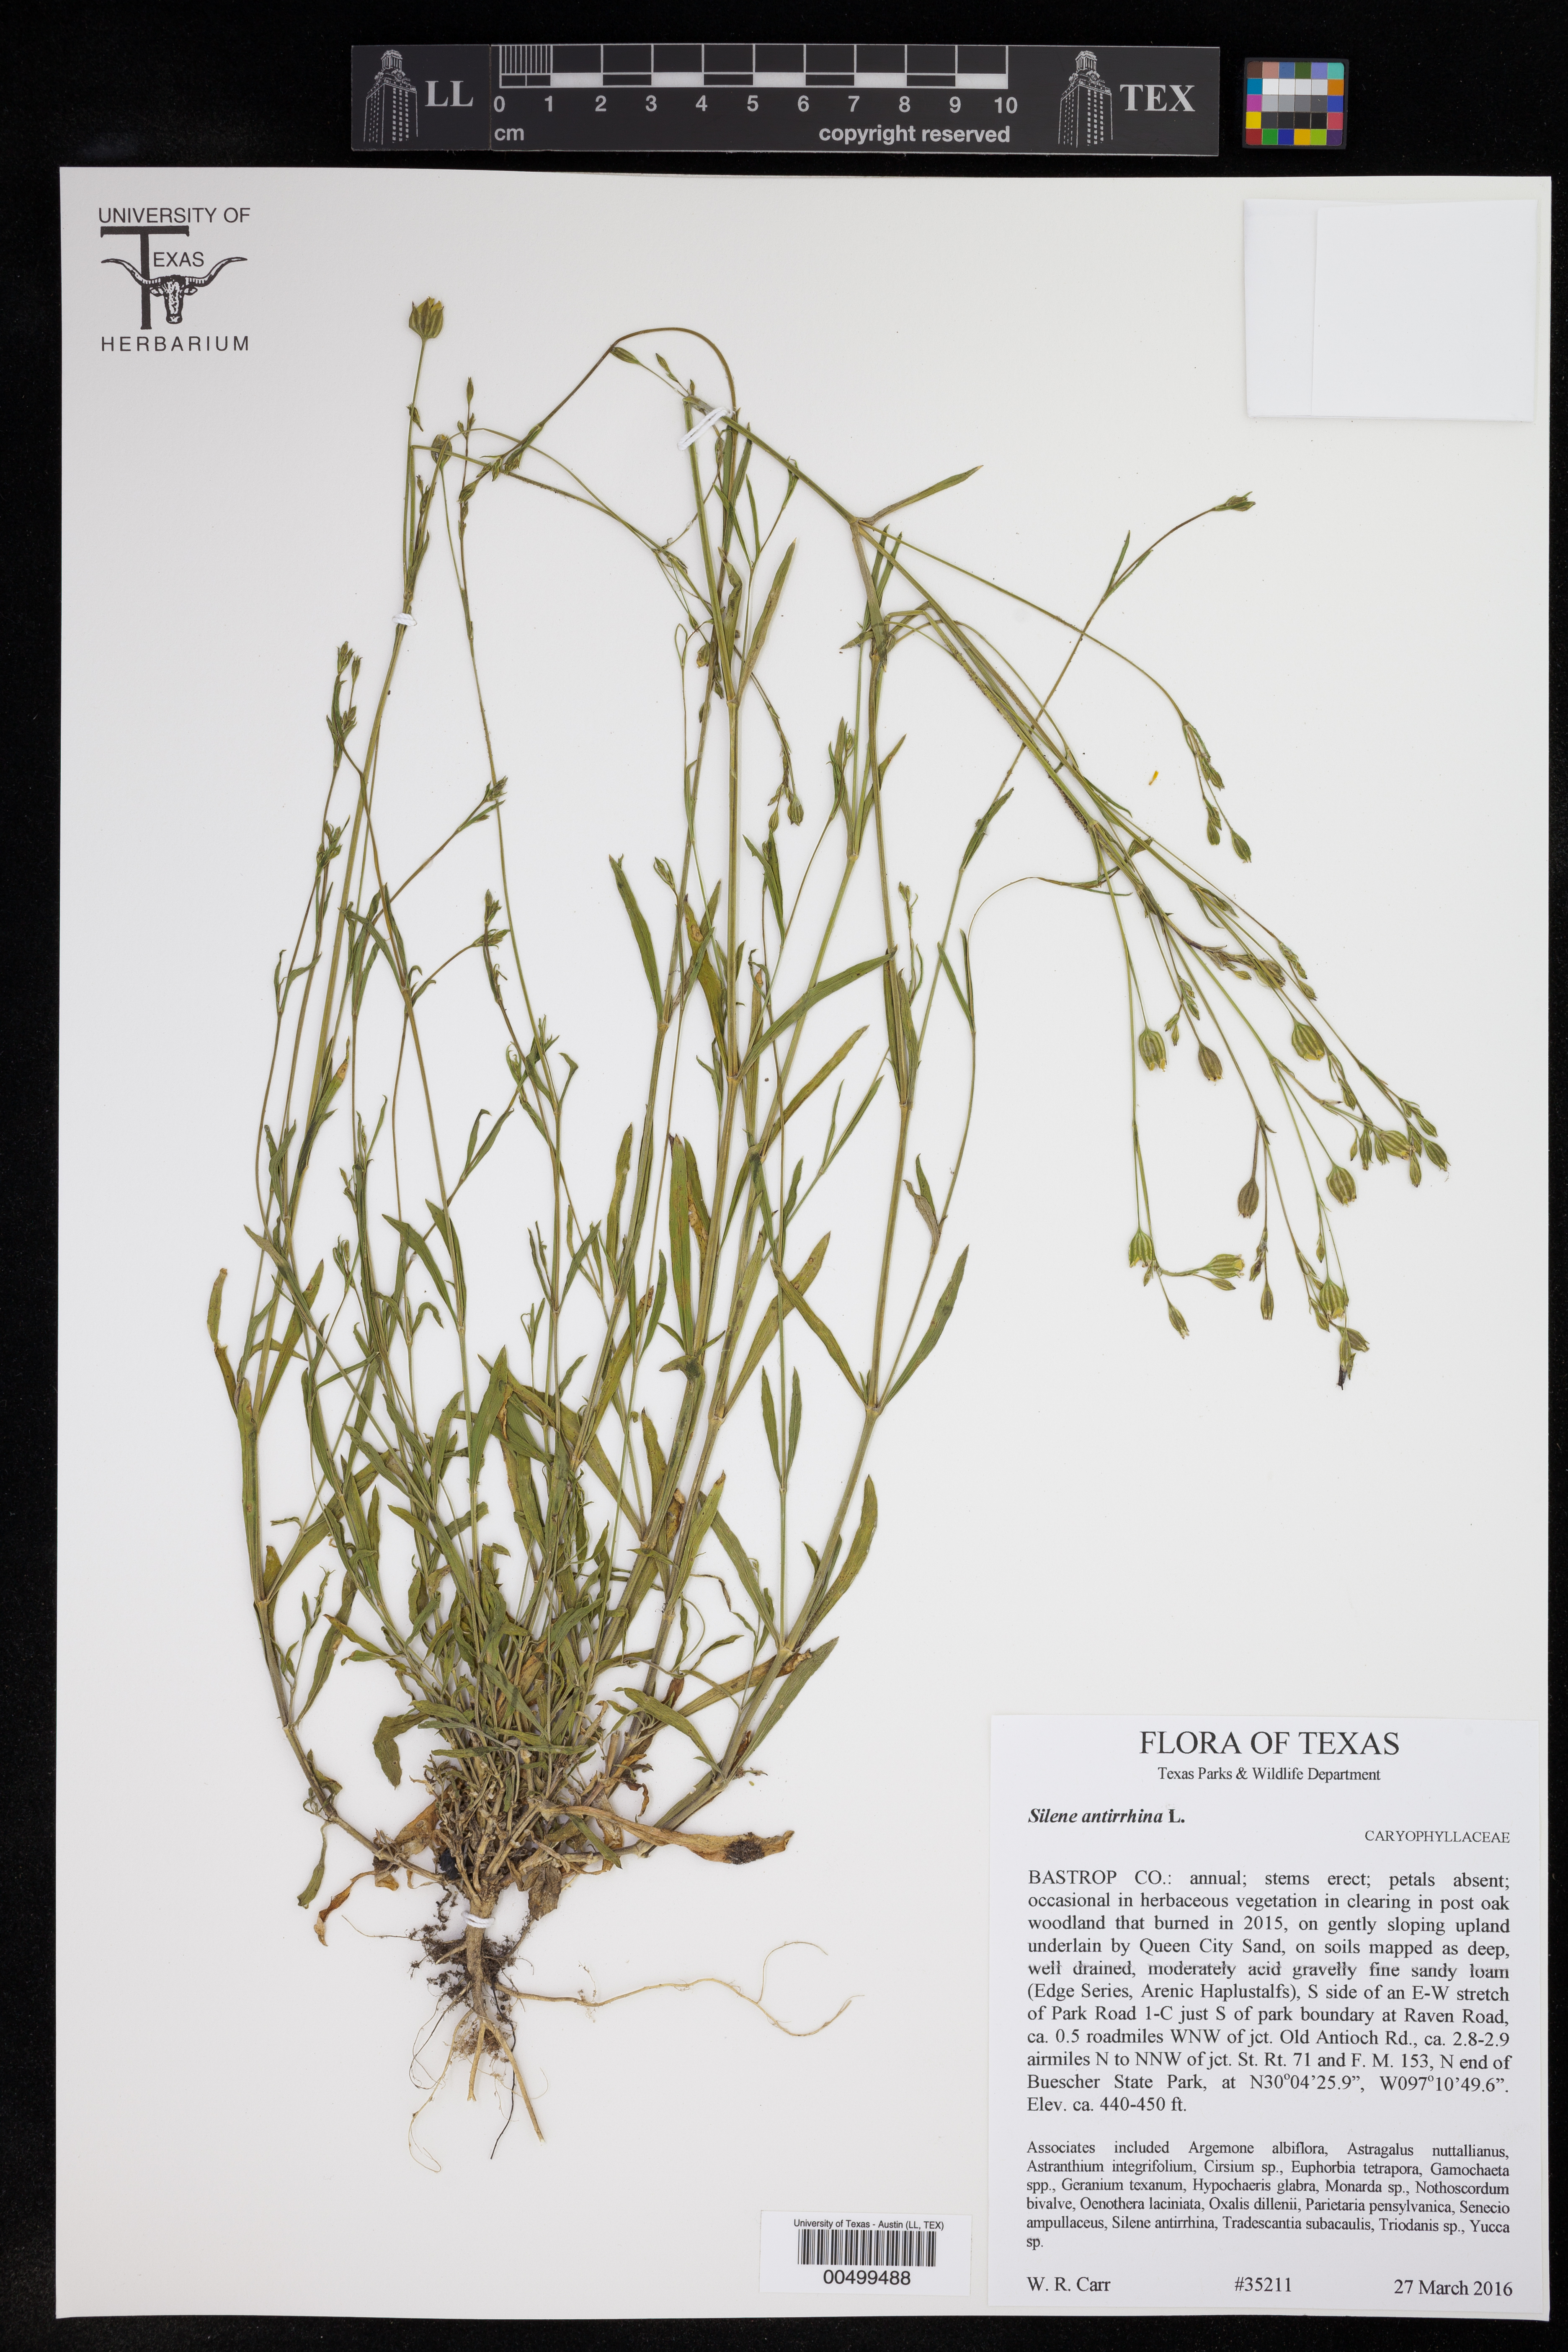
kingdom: Plantae
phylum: Tracheophyta
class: Magnoliopsida
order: Caryophyllales
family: Caryophyllaceae
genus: Silene
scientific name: Silene antirrhina
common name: Sleepy catchfly
